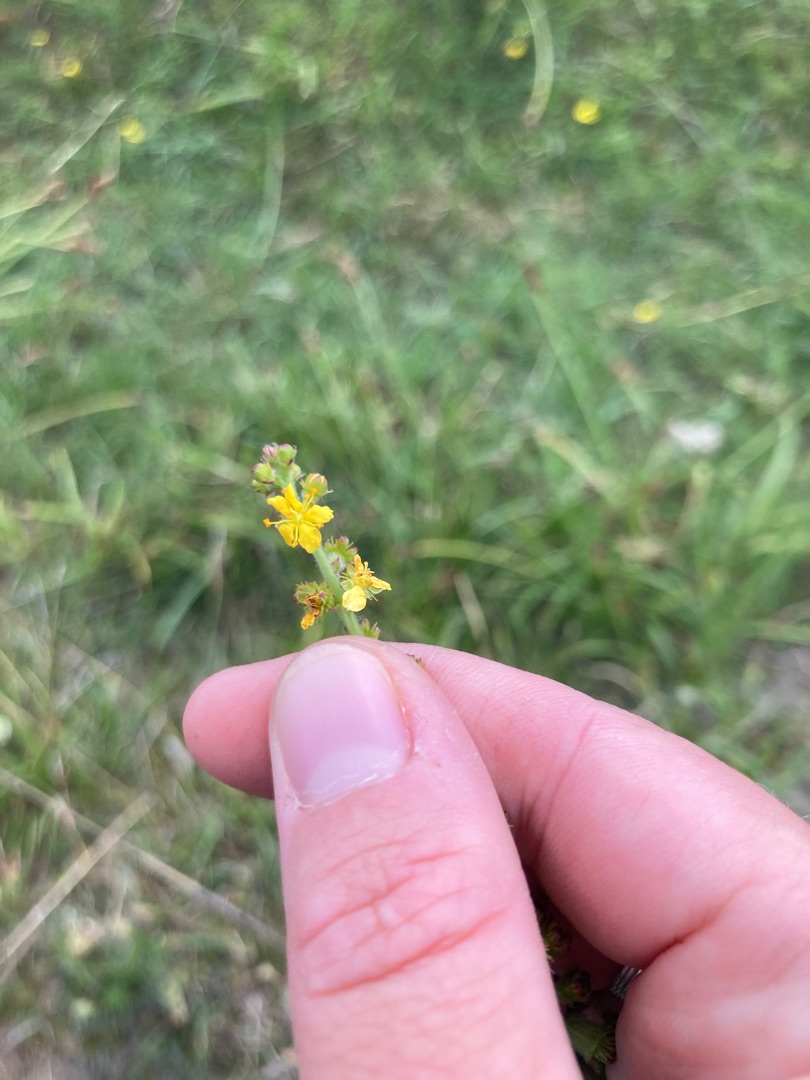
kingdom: Plantae
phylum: Tracheophyta
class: Magnoliopsida
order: Rosales
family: Rosaceae
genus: Agrimonia
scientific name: Agrimonia eupatoria
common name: Almindelig agermåne
